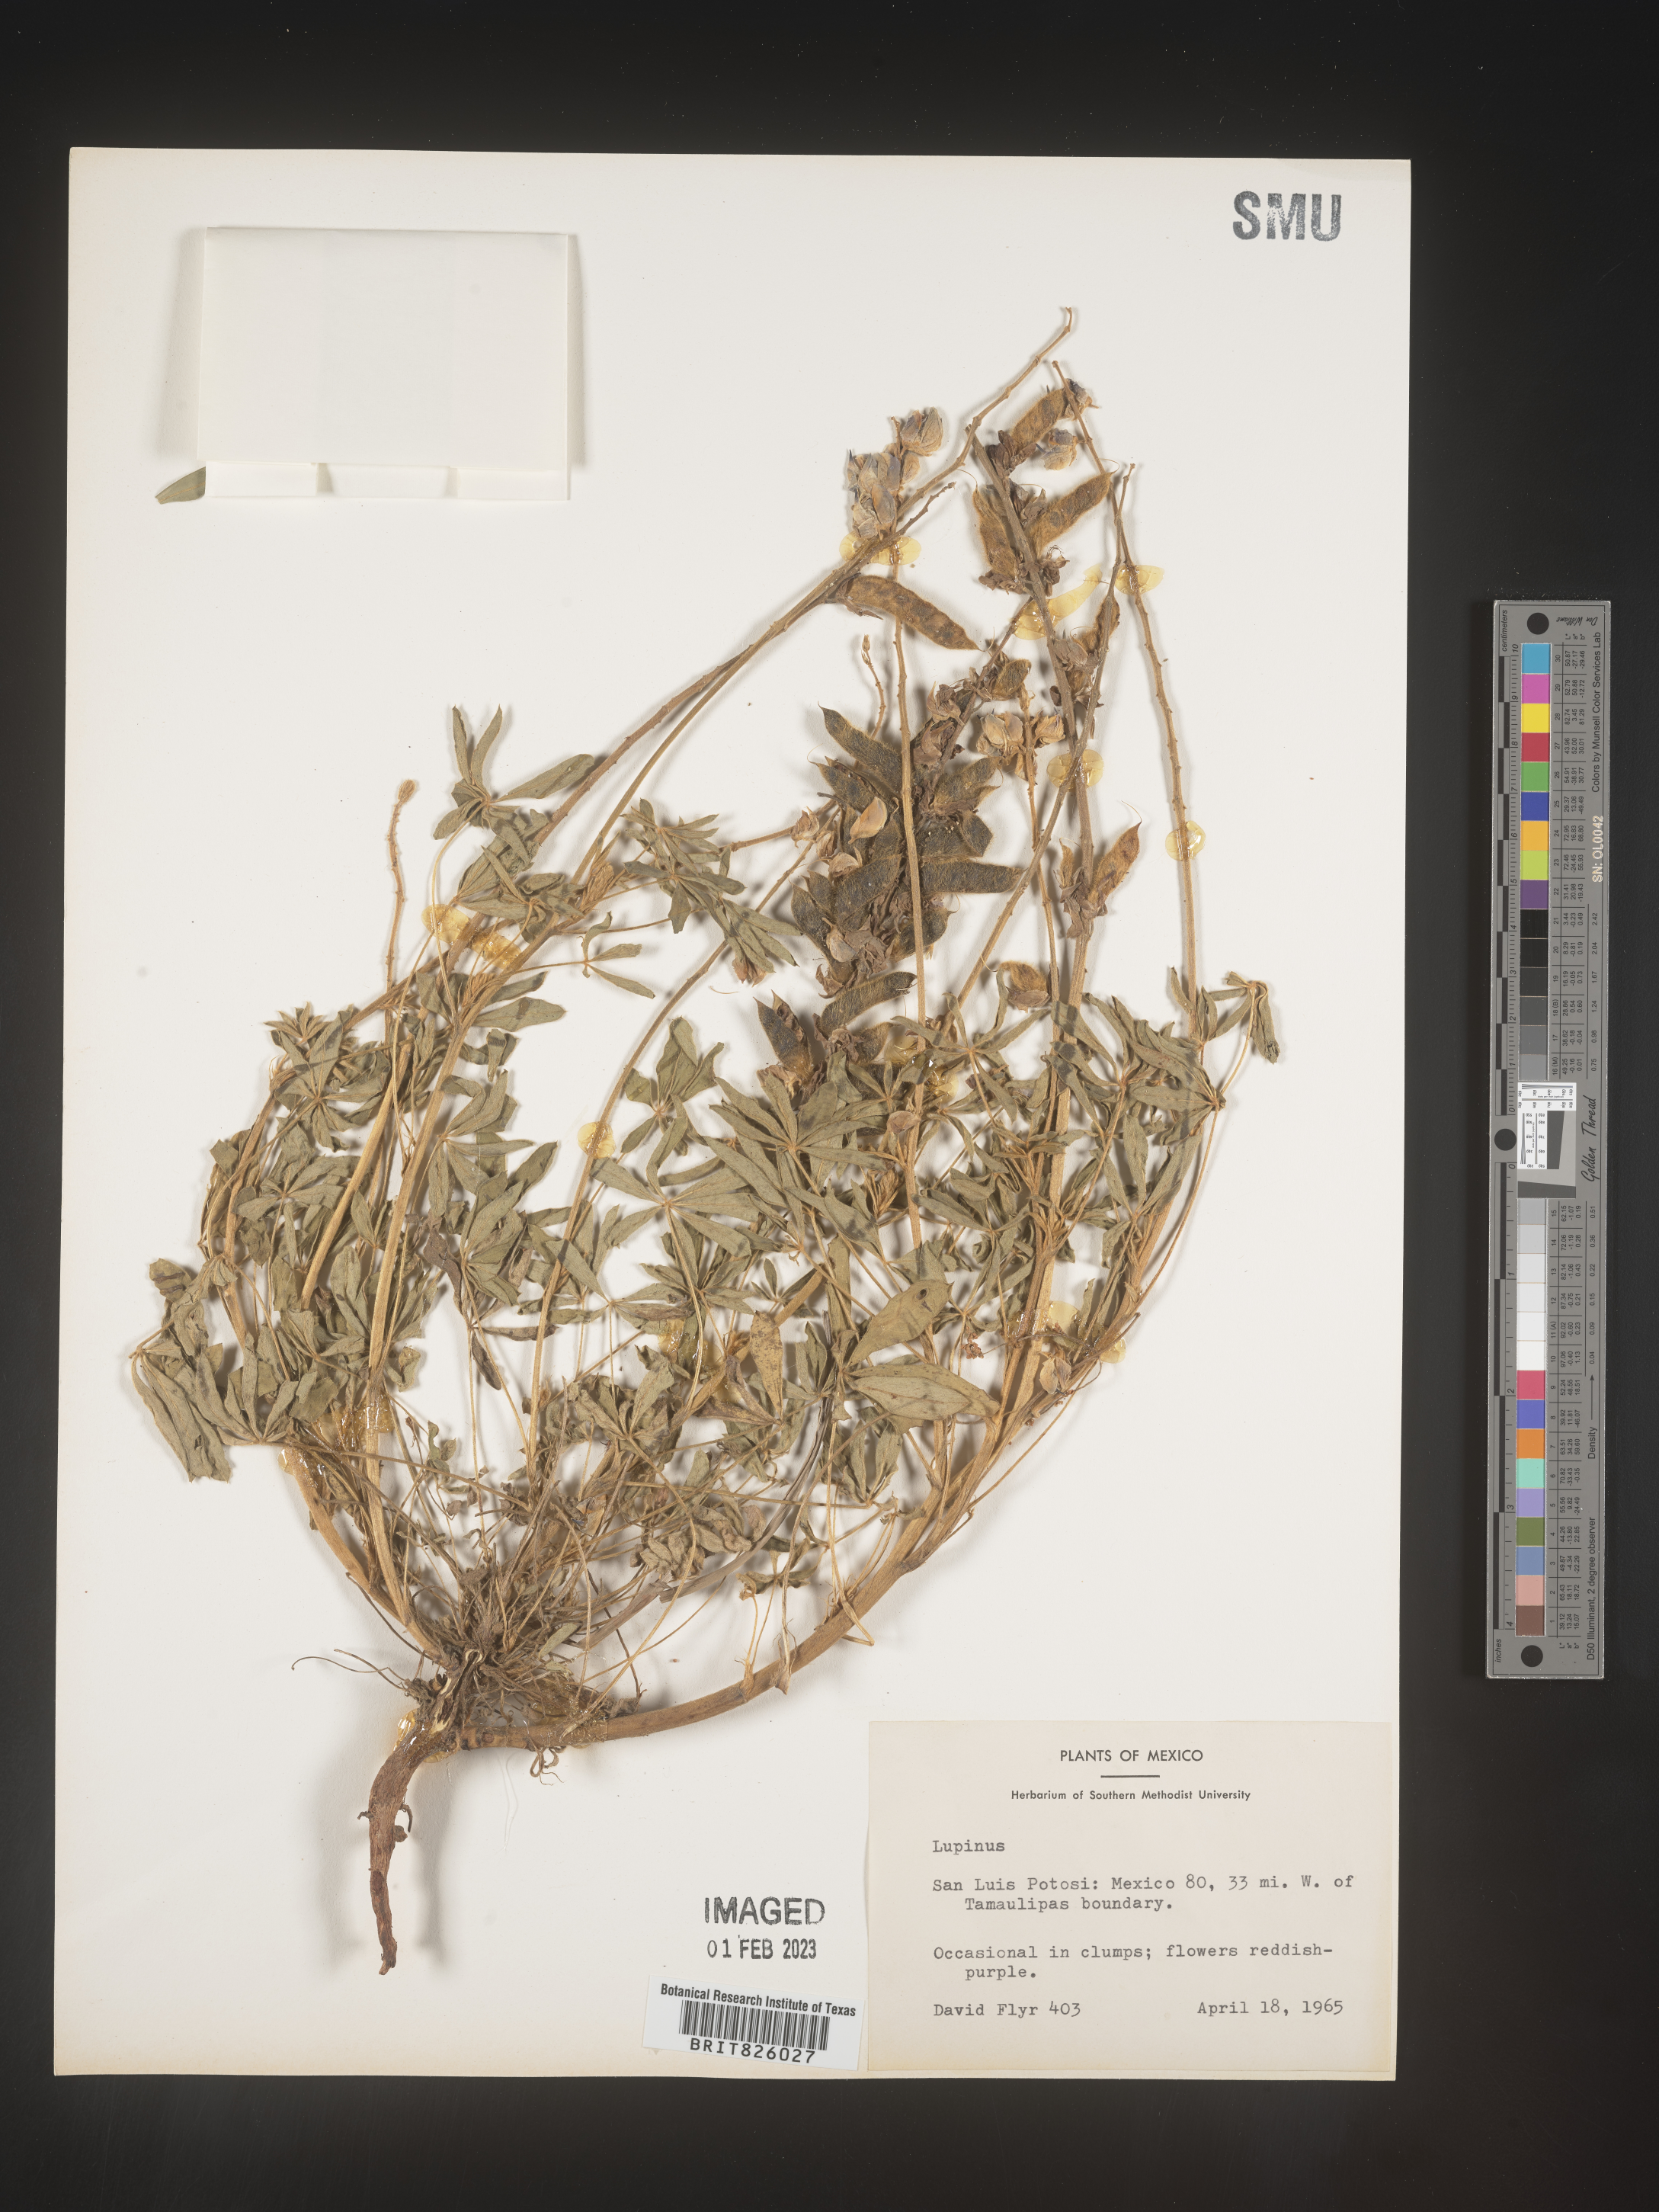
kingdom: Plantae
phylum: Tracheophyta
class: Magnoliopsida
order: Fabales
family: Fabaceae
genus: Lupinus
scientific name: Lupinus
